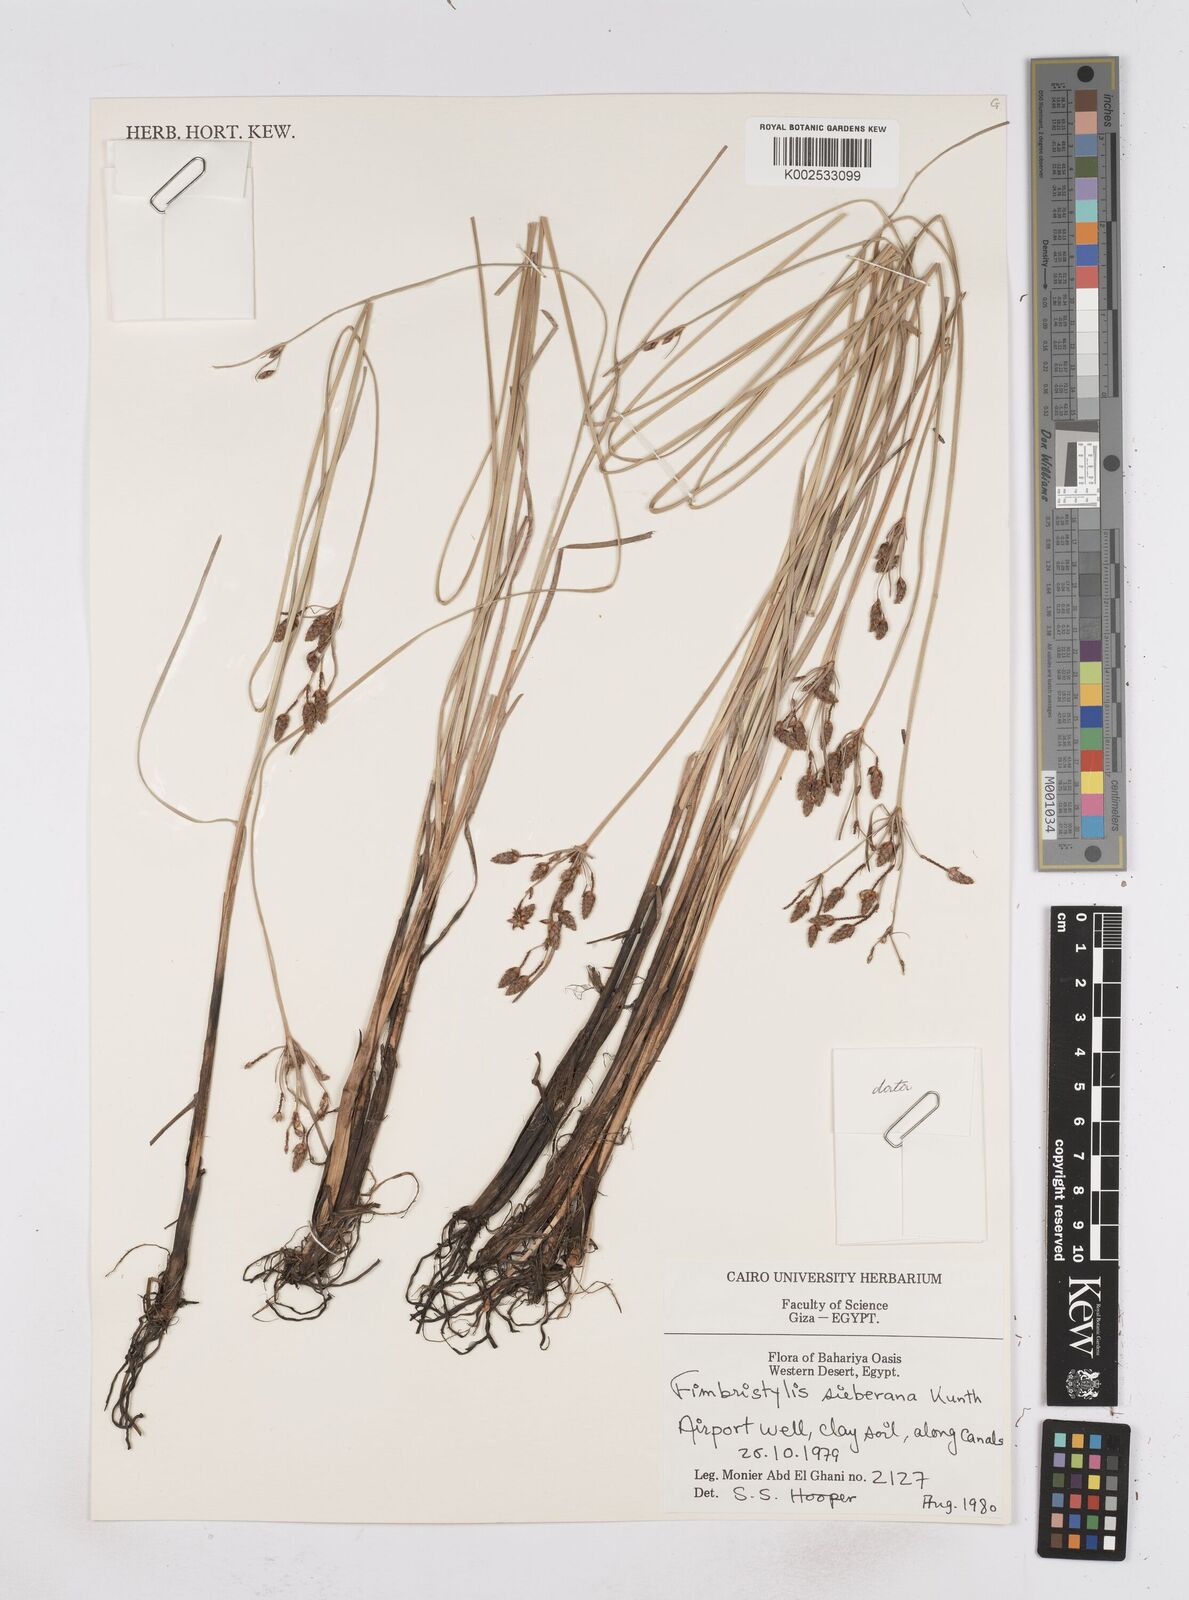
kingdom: Plantae
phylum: Tracheophyta
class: Liliopsida
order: Poales
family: Cyperaceae
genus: Fimbristylis
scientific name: Fimbristylis ferruginea
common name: West indian fimbry
